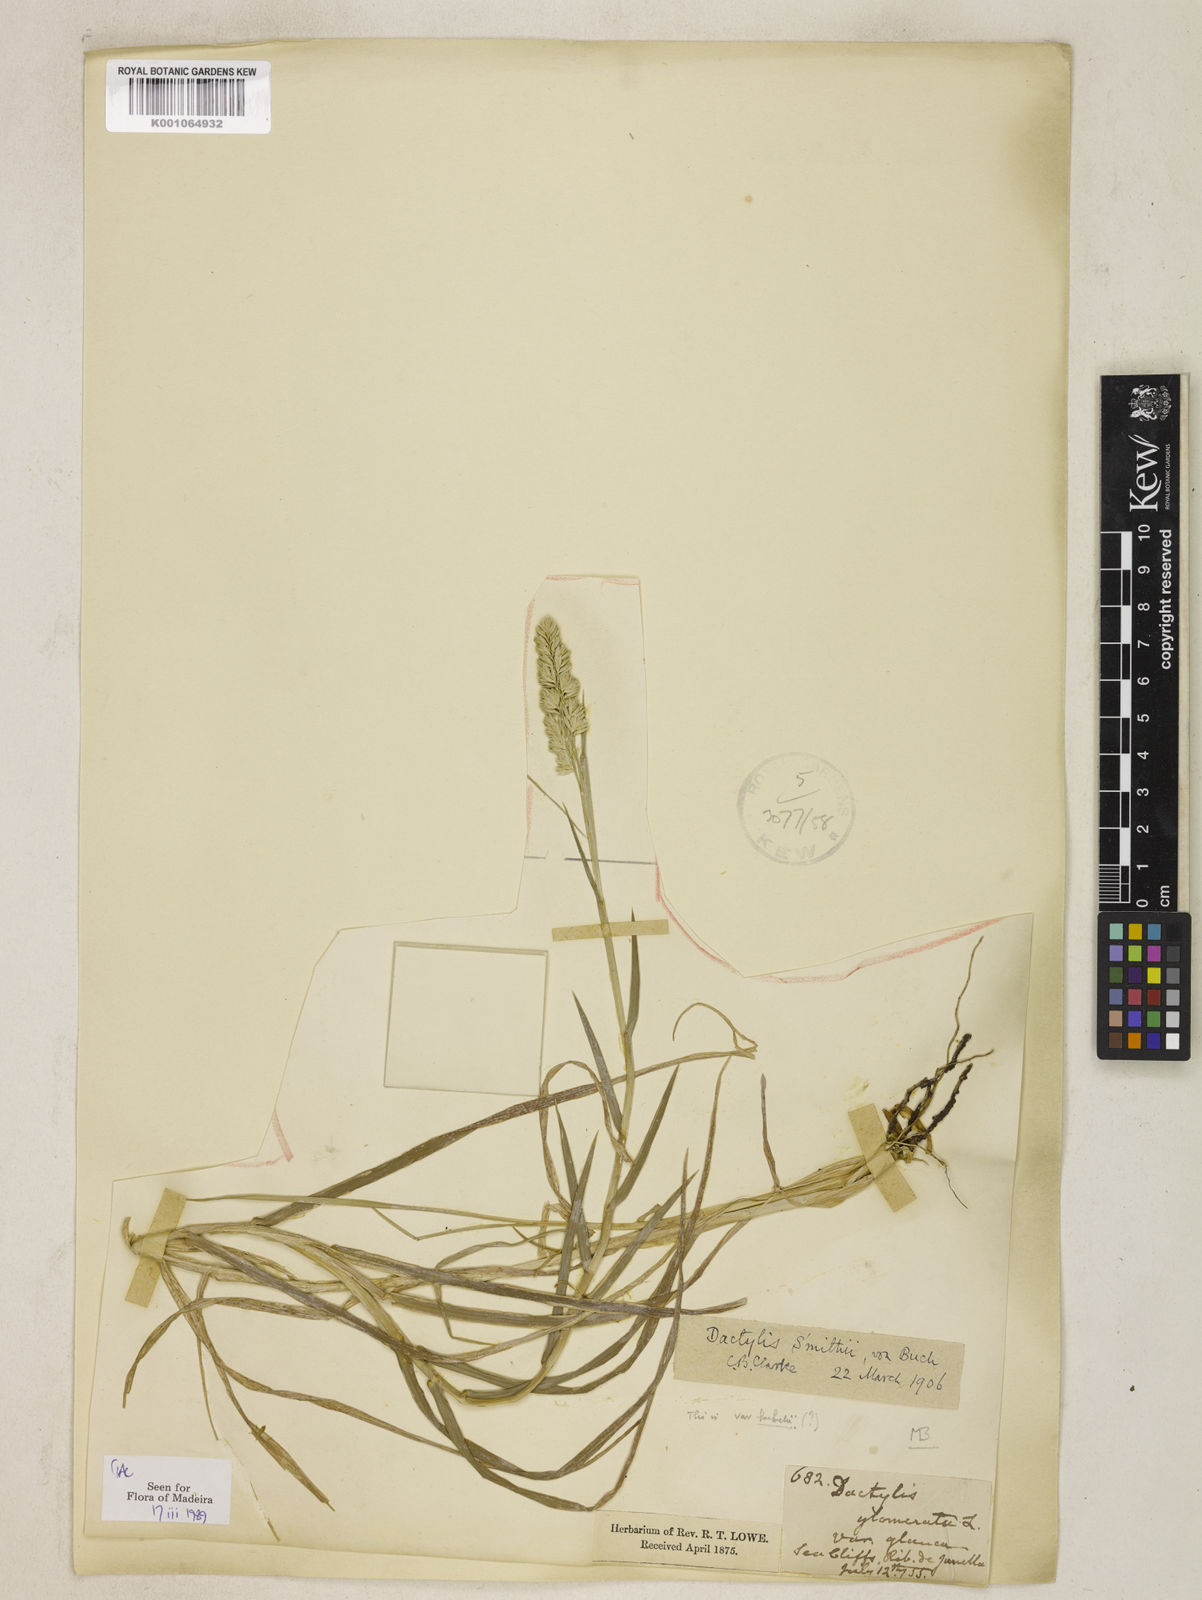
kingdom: Plantae
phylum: Tracheophyta
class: Liliopsida
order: Poales
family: Poaceae
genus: Dactylis
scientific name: Dactylis glomerata
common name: Orchardgrass
